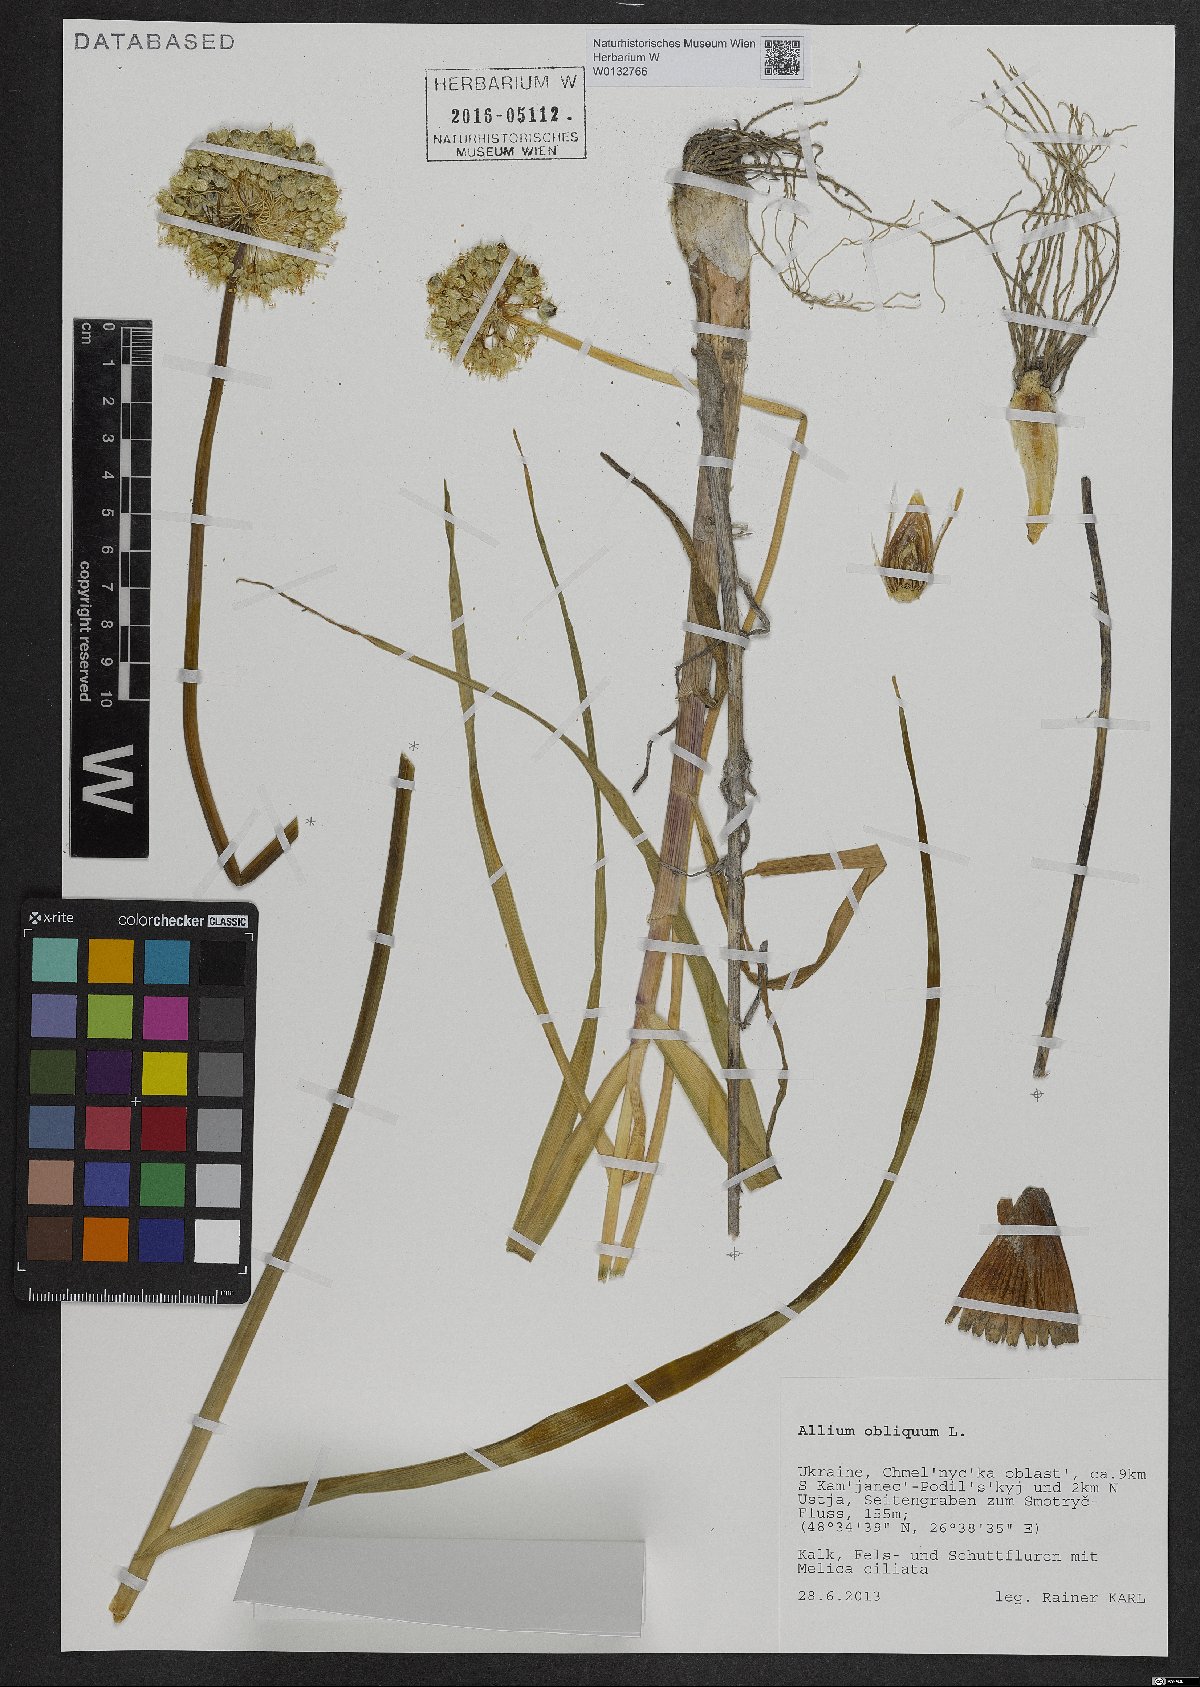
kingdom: Plantae
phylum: Tracheophyta
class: Liliopsida
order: Asparagales
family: Amaryllidaceae
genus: Allium
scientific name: Allium obliquum
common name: Oblique onion
